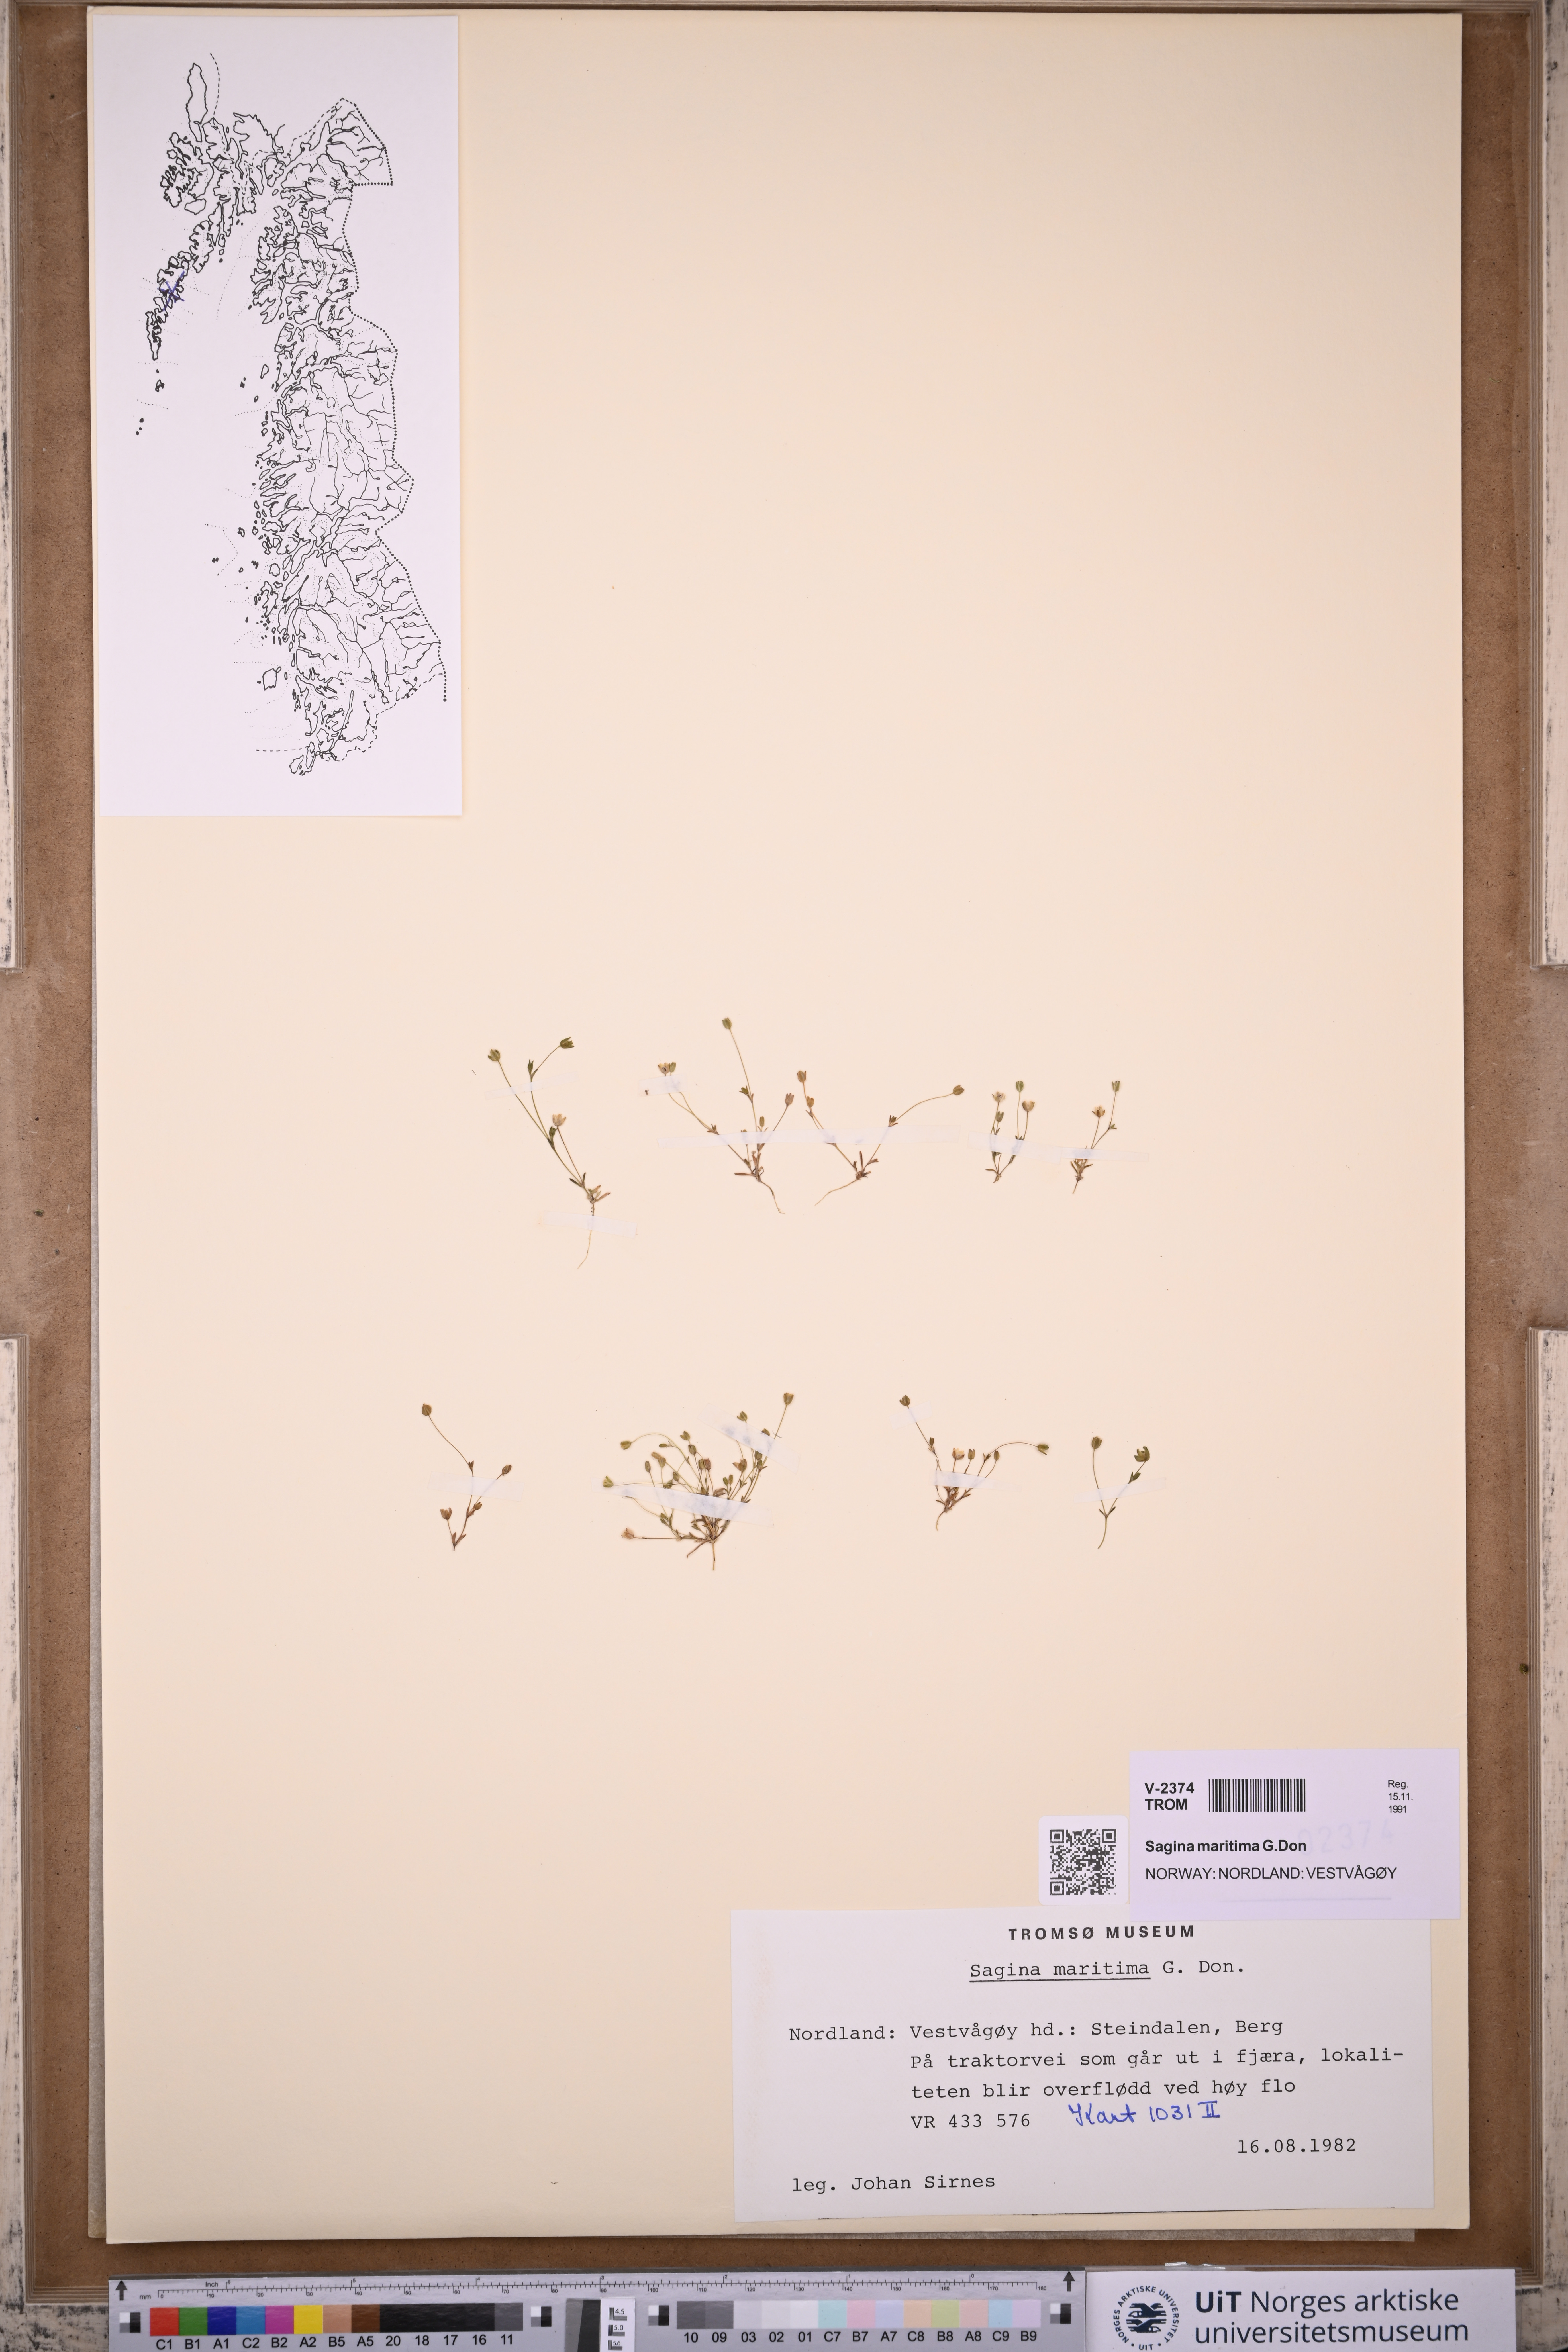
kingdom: Plantae
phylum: Tracheophyta
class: Magnoliopsida
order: Caryophyllales
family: Caryophyllaceae
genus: Sagina
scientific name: Sagina maritima
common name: Sea pearlwort
